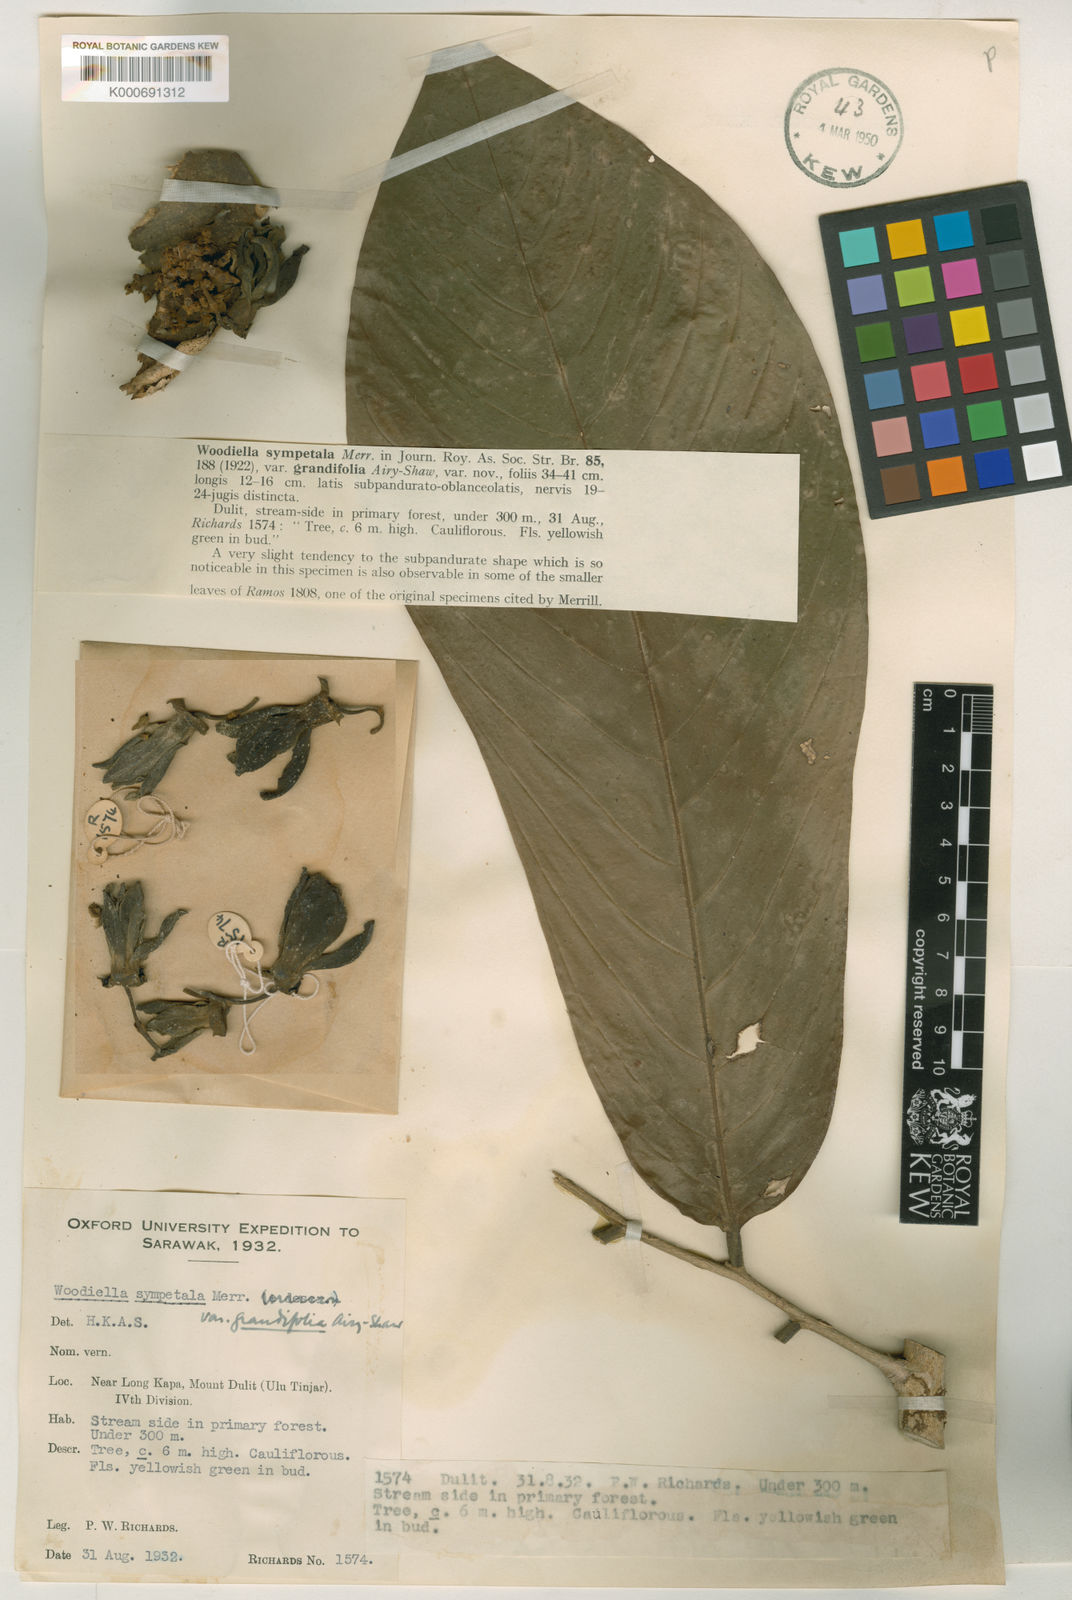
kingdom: Plantae
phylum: Tracheophyta
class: Magnoliopsida
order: Magnoliales
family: Annonaceae
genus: Woodiellantha
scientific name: Woodiellantha
